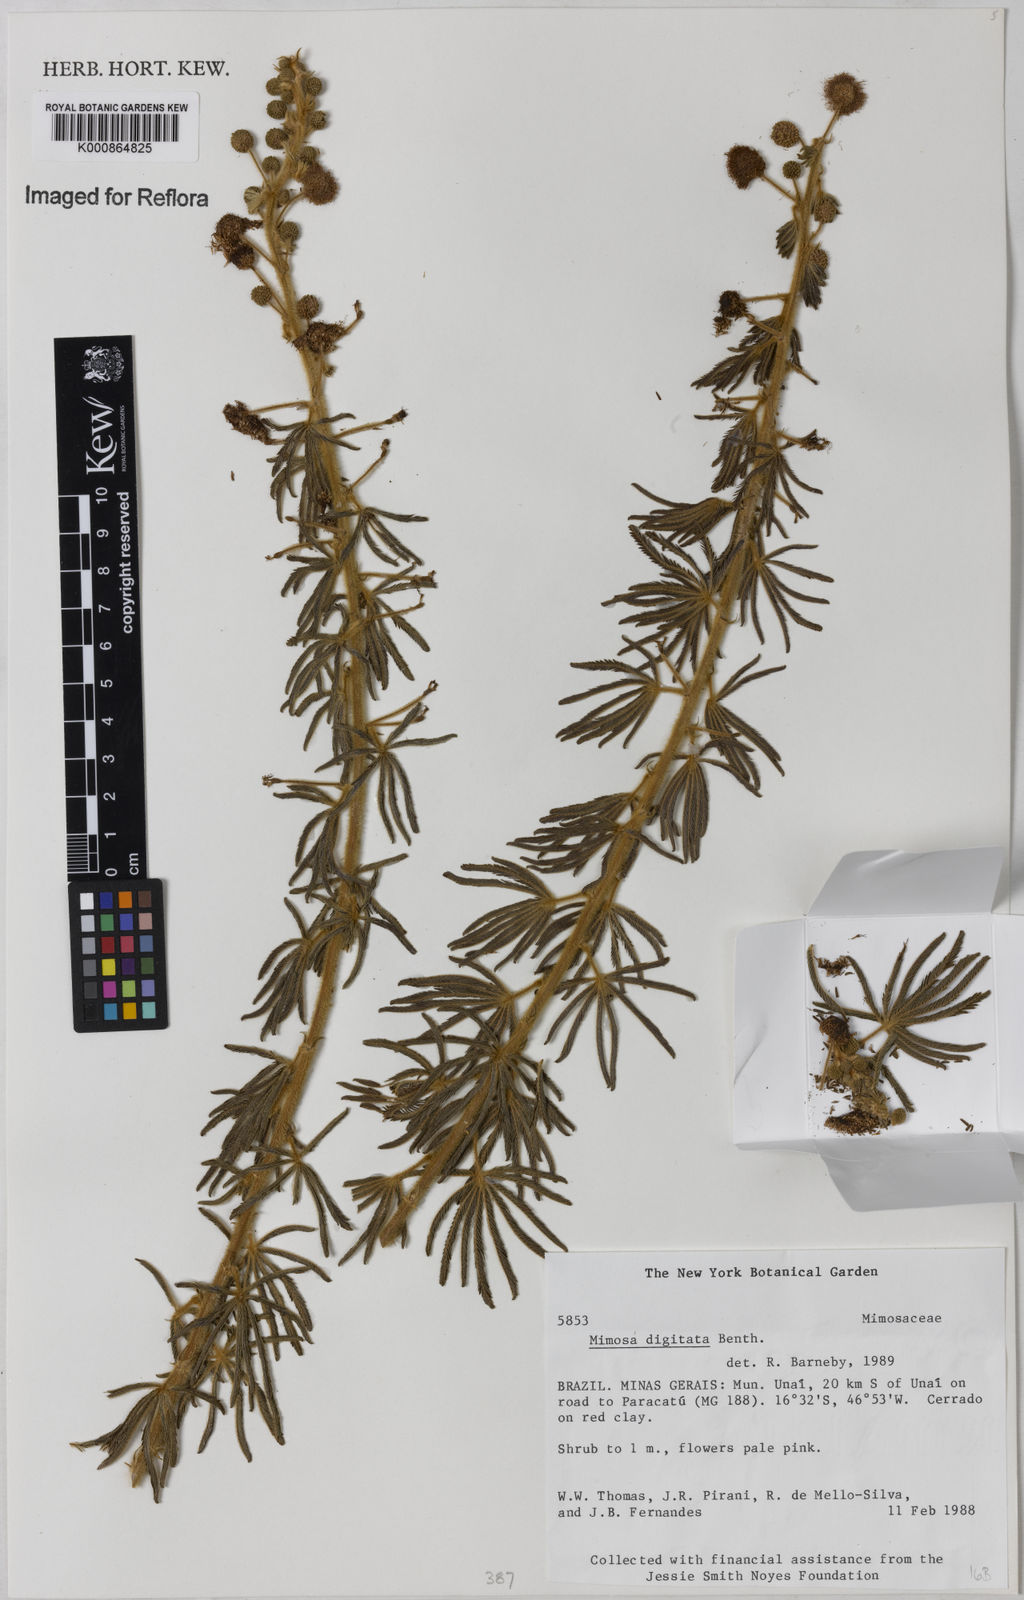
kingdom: Plantae
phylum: Tracheophyta
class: Magnoliopsida
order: Fabales
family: Fabaceae
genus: Mimosa
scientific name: Mimosa digitata
